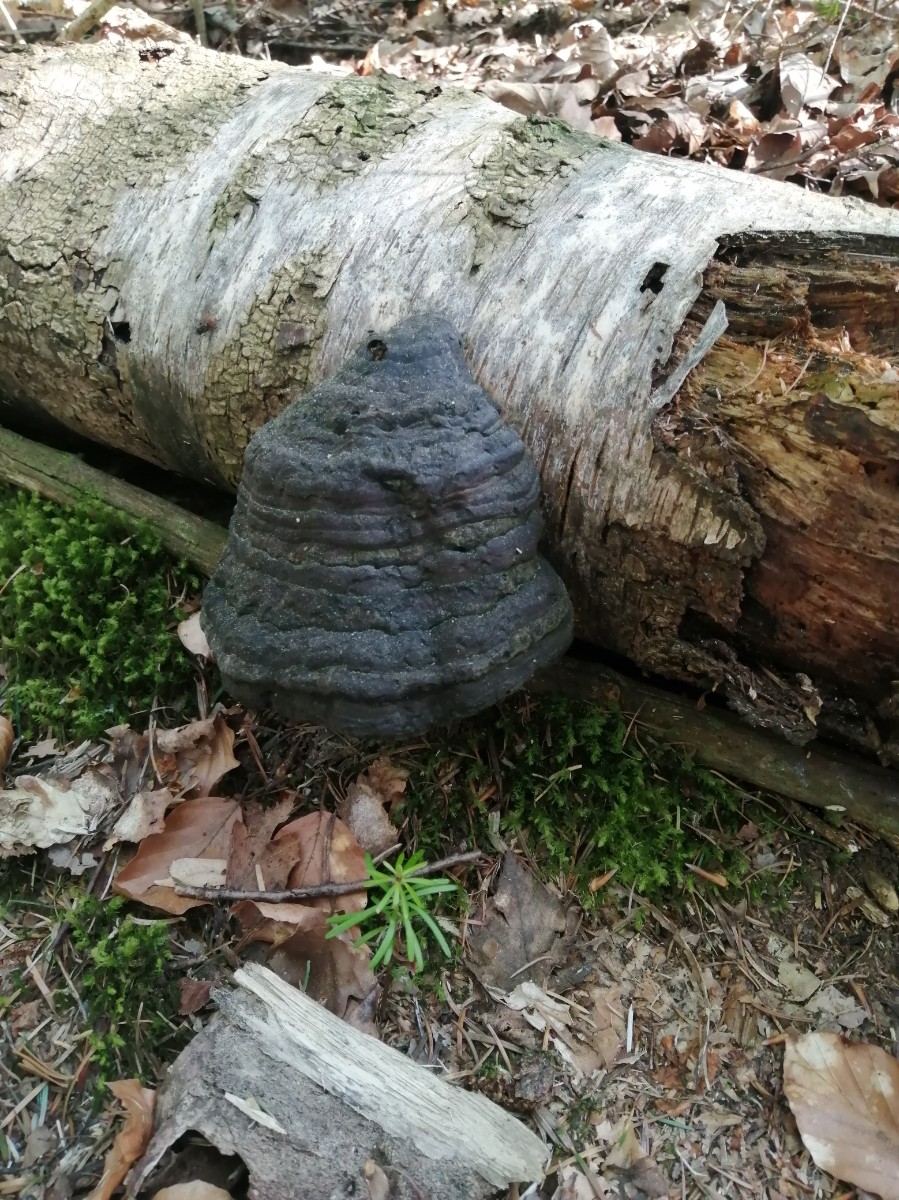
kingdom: Fungi
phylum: Basidiomycota
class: Agaricomycetes
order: Polyporales
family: Polyporaceae
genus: Fomes
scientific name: Fomes fomentarius
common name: tøndersvamp
